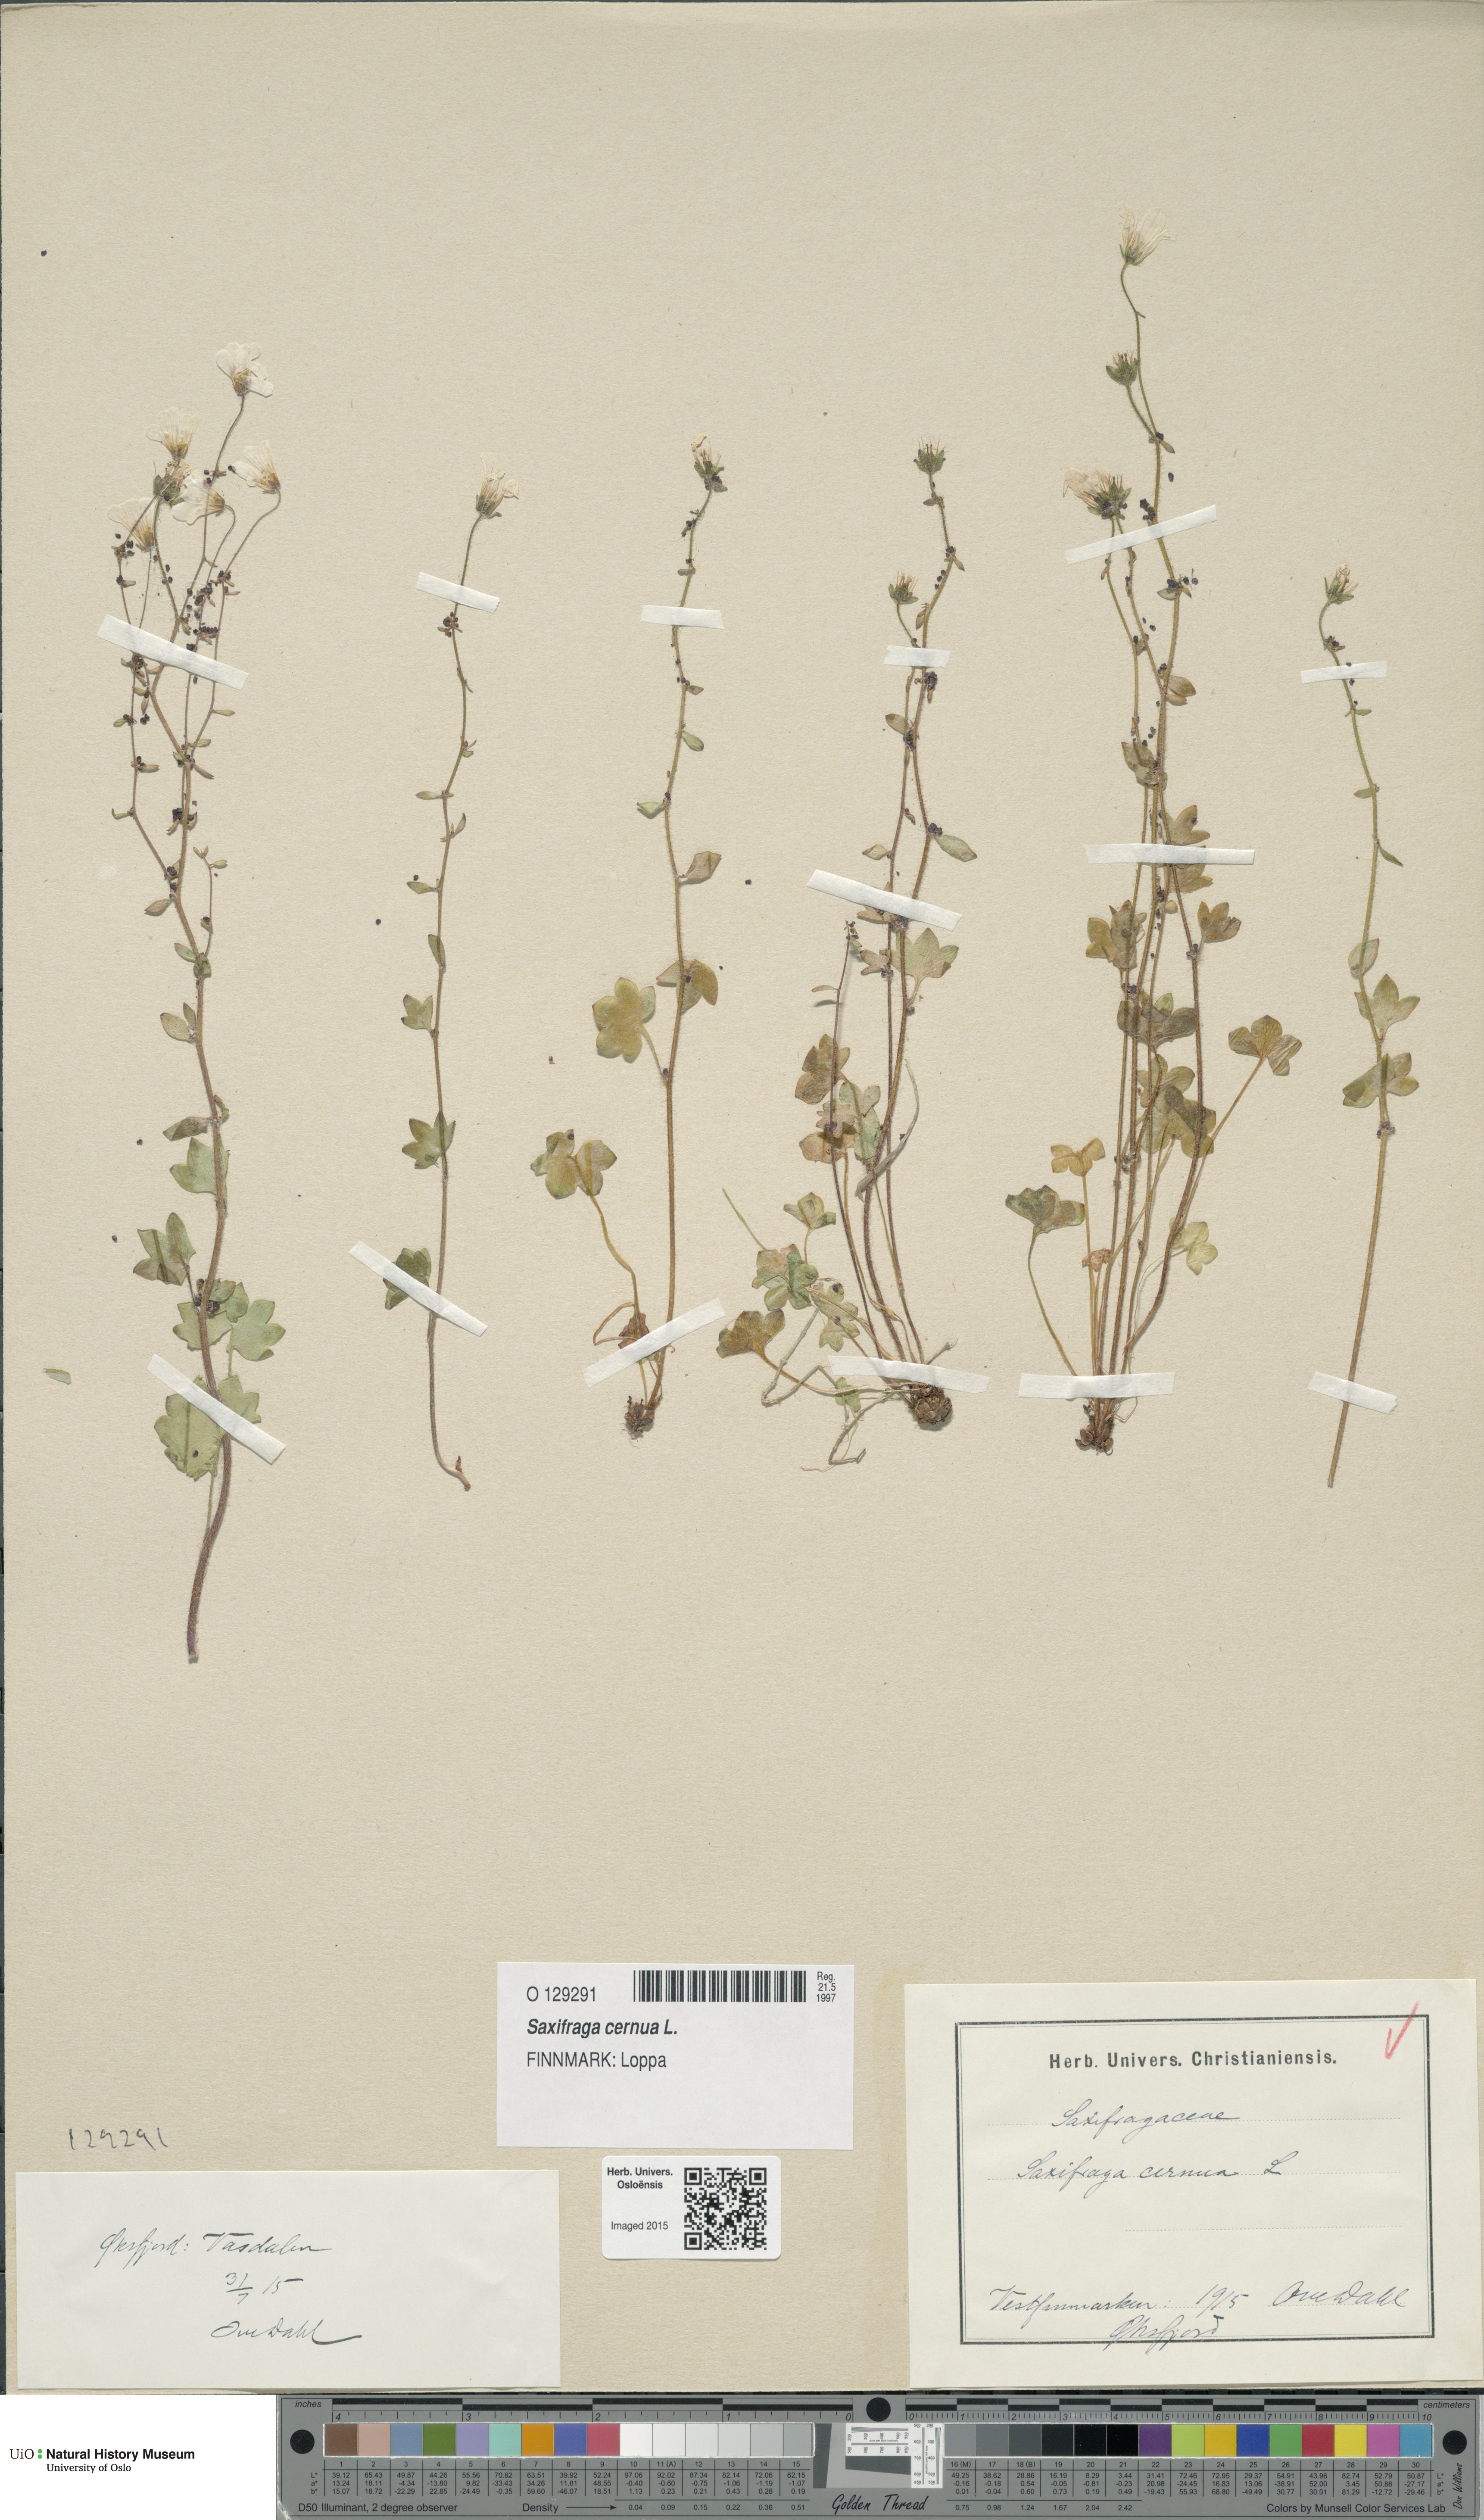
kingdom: Plantae
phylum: Tracheophyta
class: Magnoliopsida
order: Saxifragales
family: Saxifragaceae
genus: Saxifraga
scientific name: Saxifraga cernua
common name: Drooping saxifrage
